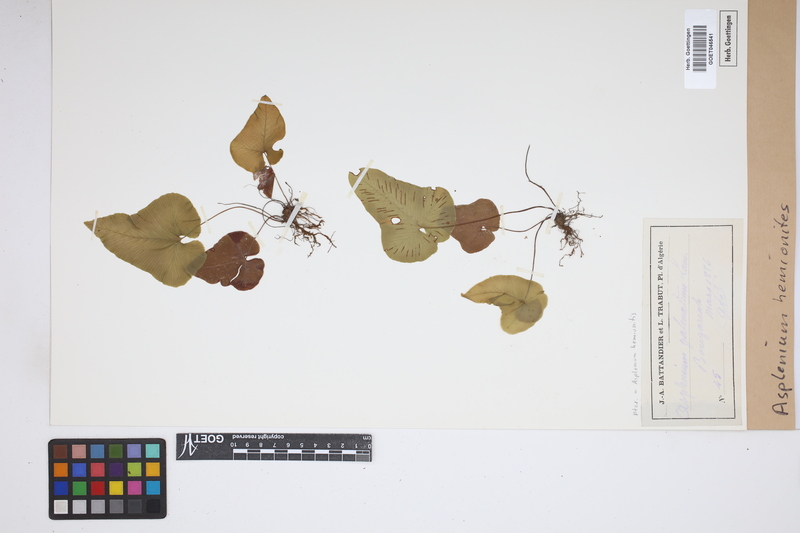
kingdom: Plantae
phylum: Tracheophyta
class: Polypodiopsida
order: Polypodiales
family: Aspleniaceae
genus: Asplenium
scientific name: Asplenium hemionitis
